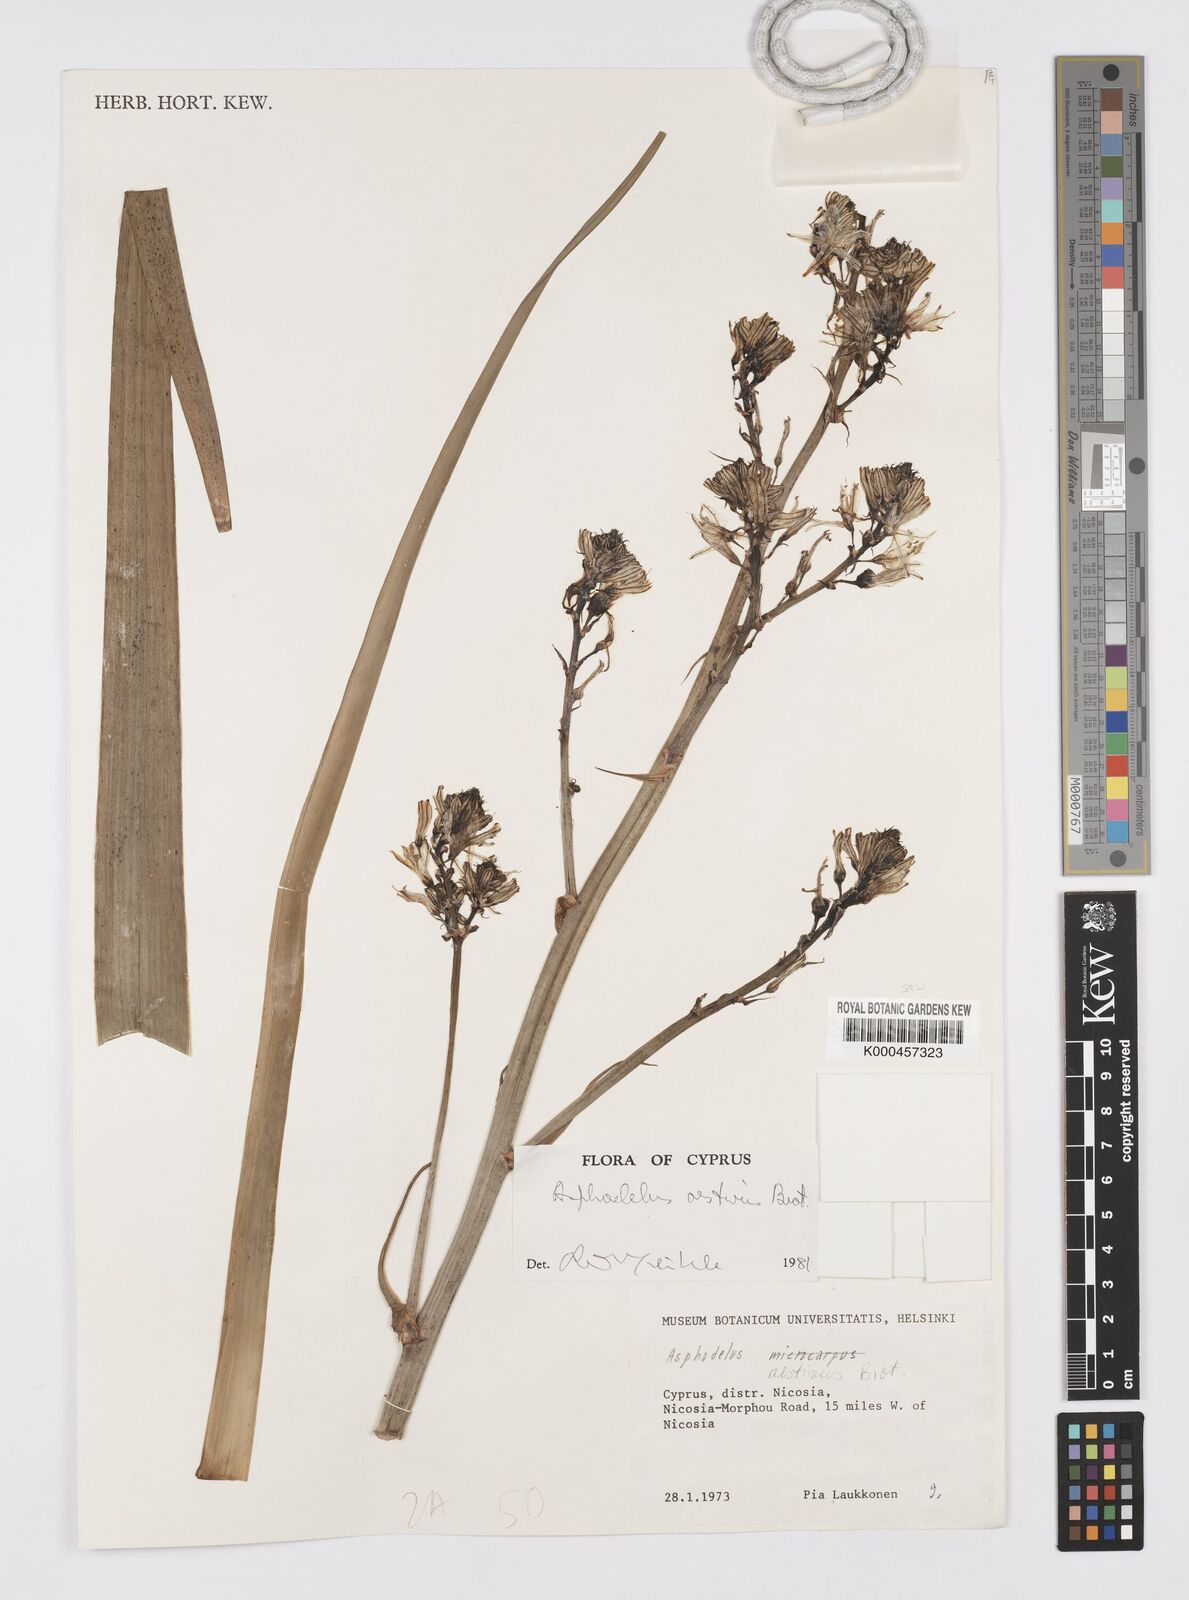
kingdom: Plantae
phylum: Tracheophyta
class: Liliopsida
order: Asparagales
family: Asphodelaceae
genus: Asphodelus
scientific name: Asphodelus aestivus
